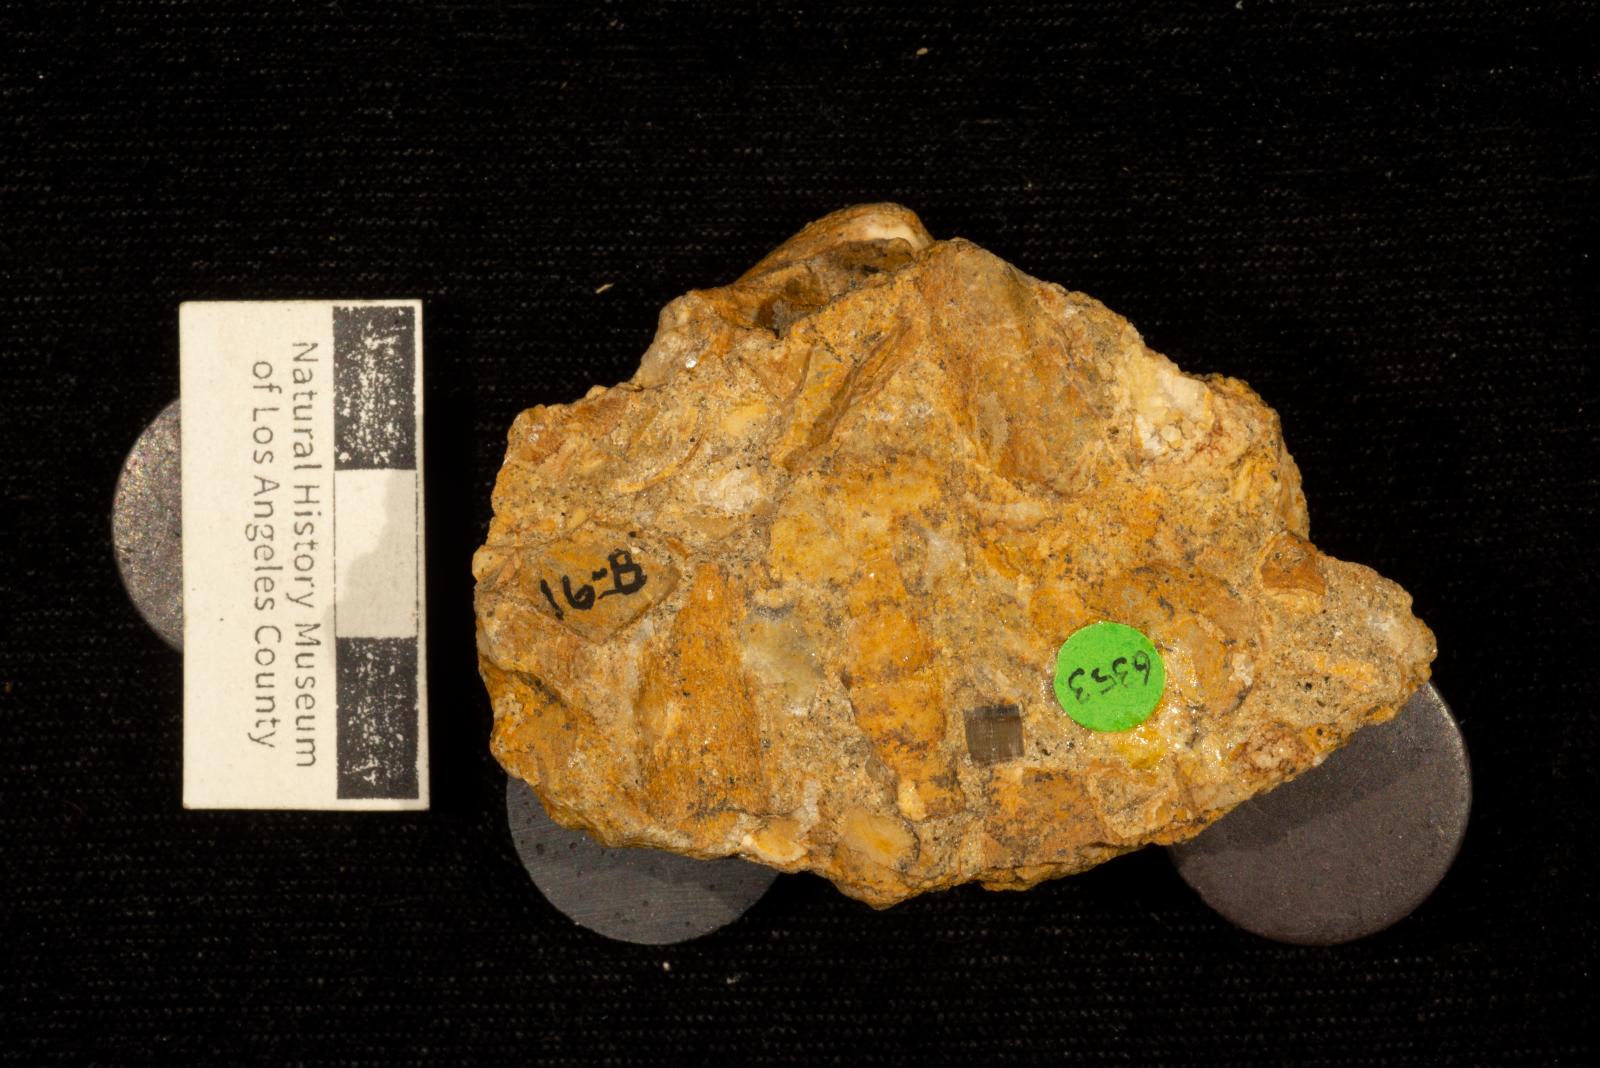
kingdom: Animalia
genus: Oichnus
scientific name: Oichnus
